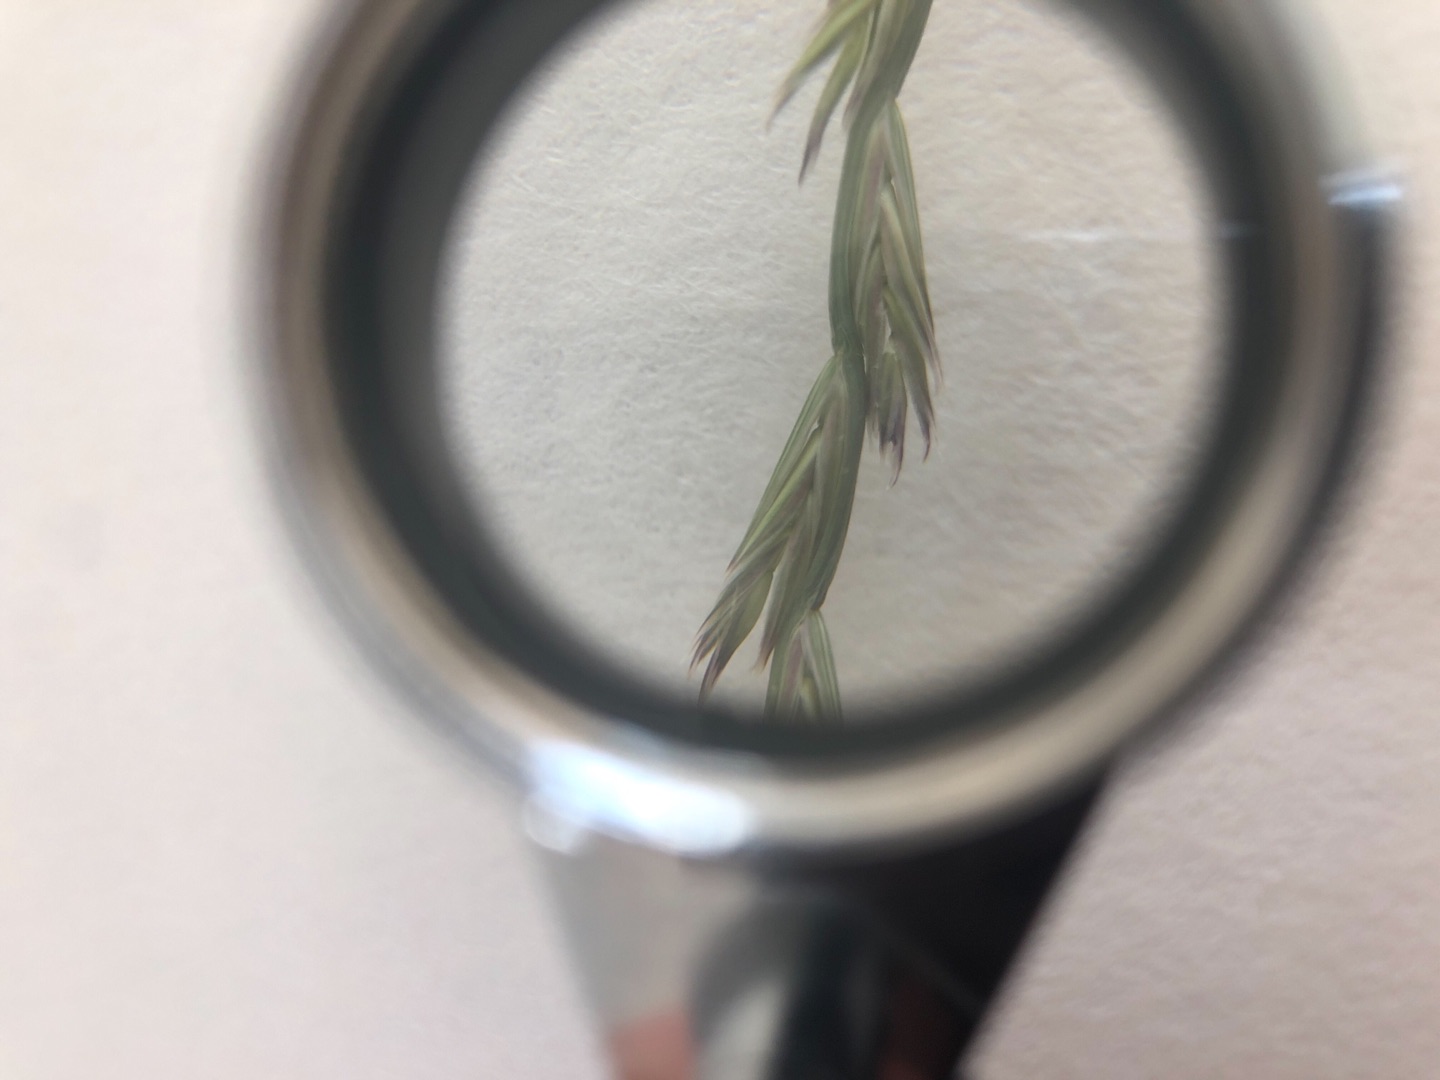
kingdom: Plantae
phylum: Tracheophyta
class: Liliopsida
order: Poales
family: Poaceae
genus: Lolium
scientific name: Lolium perenne
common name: Almindelig rajgræs
